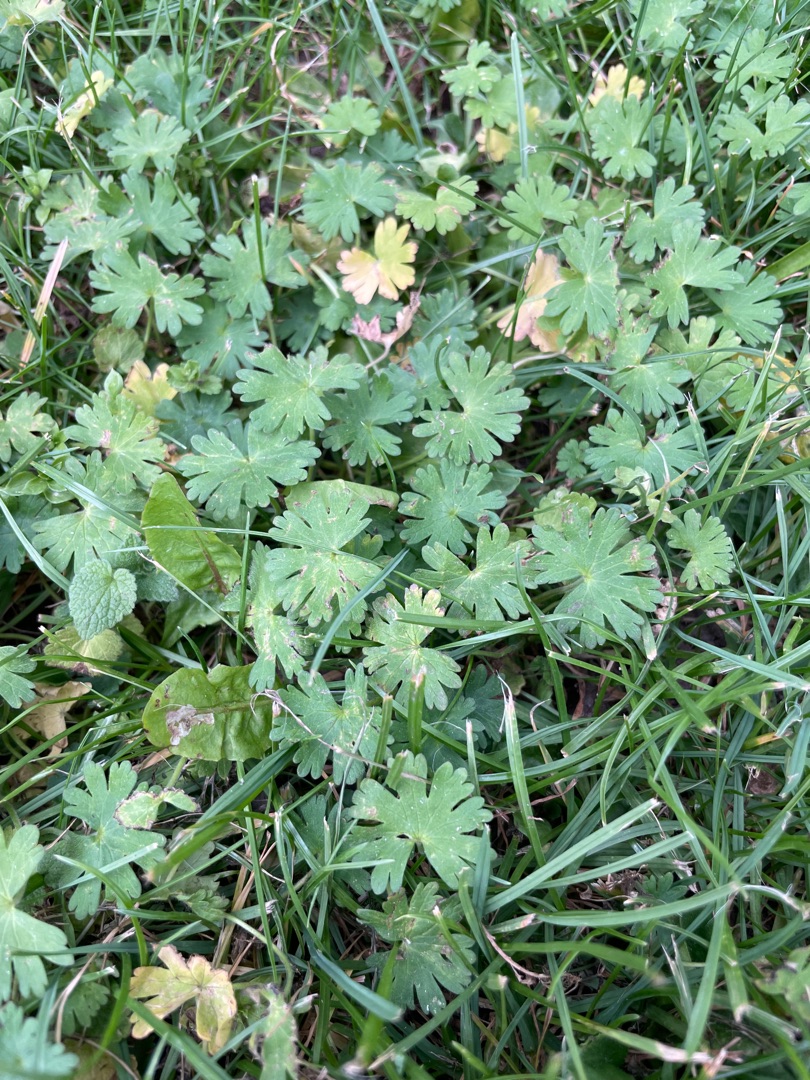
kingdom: Plantae
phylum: Tracheophyta
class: Magnoliopsida
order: Geraniales
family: Geraniaceae
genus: Geranium
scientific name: Geranium
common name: Storkenæbslægten
